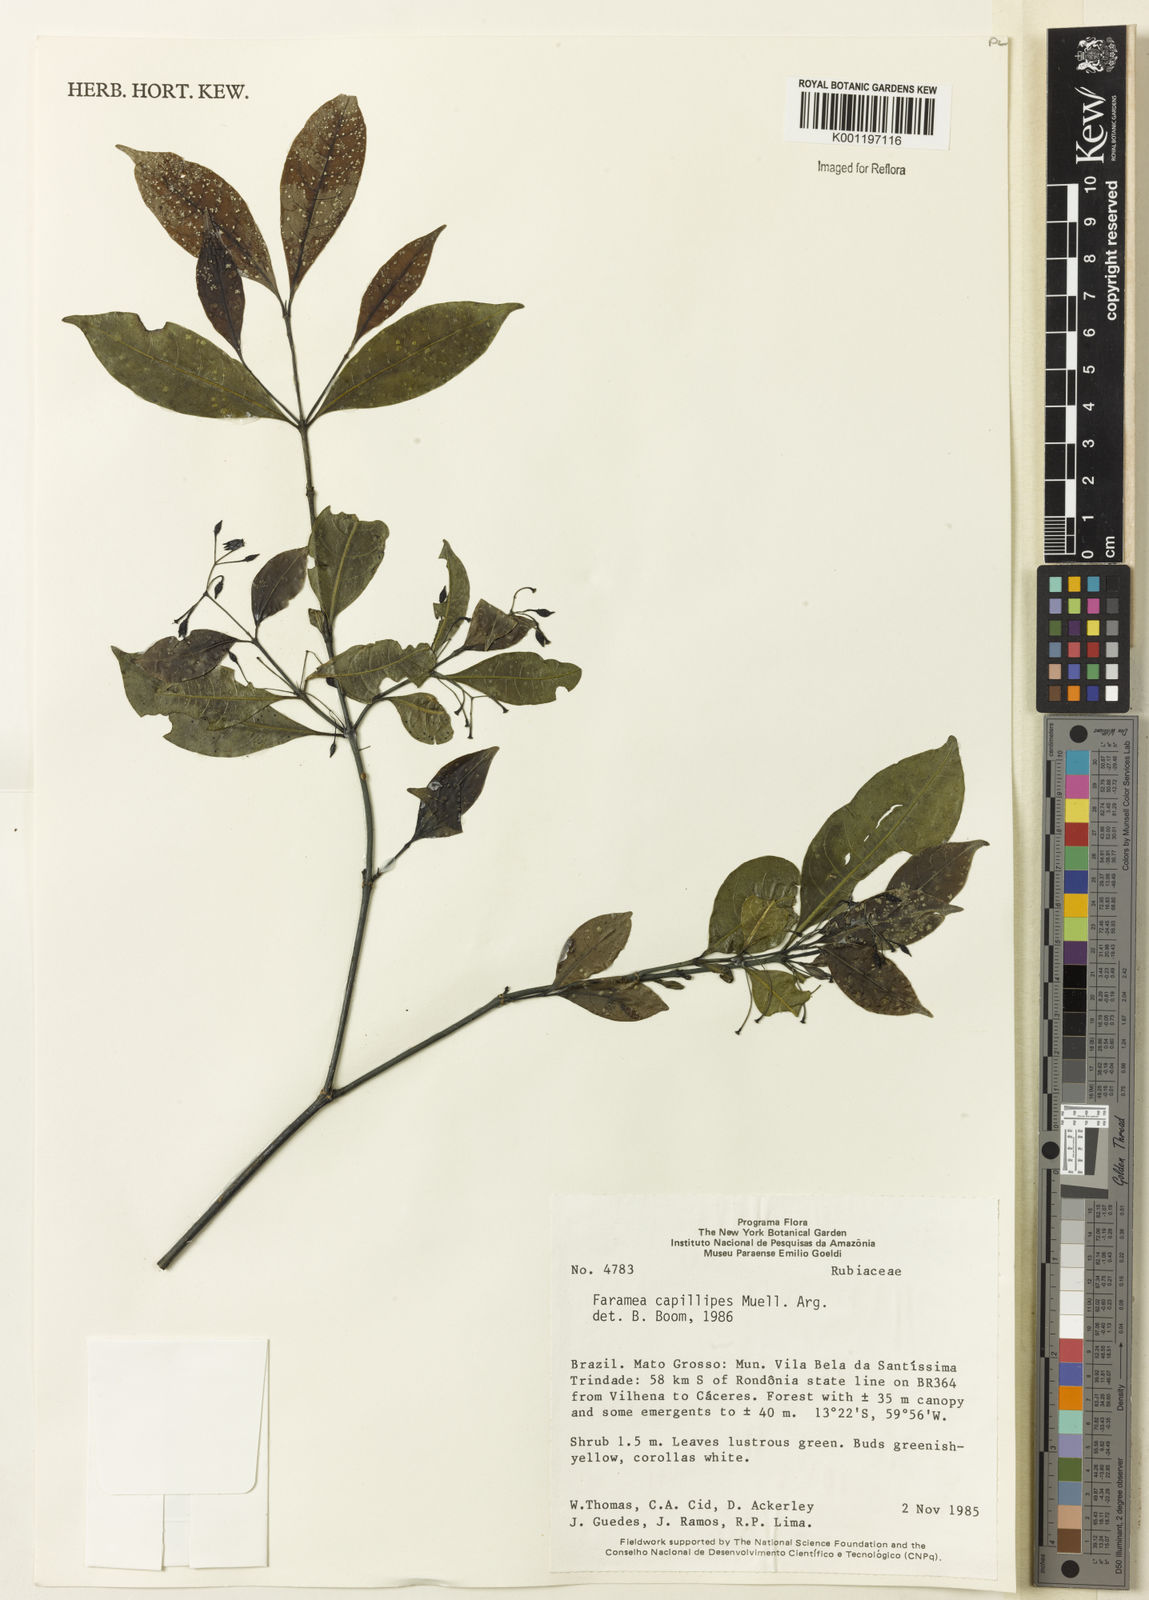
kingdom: Plantae
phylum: Tracheophyta
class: Magnoliopsida
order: Gentianales
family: Rubiaceae
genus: Faramea
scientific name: Faramea
